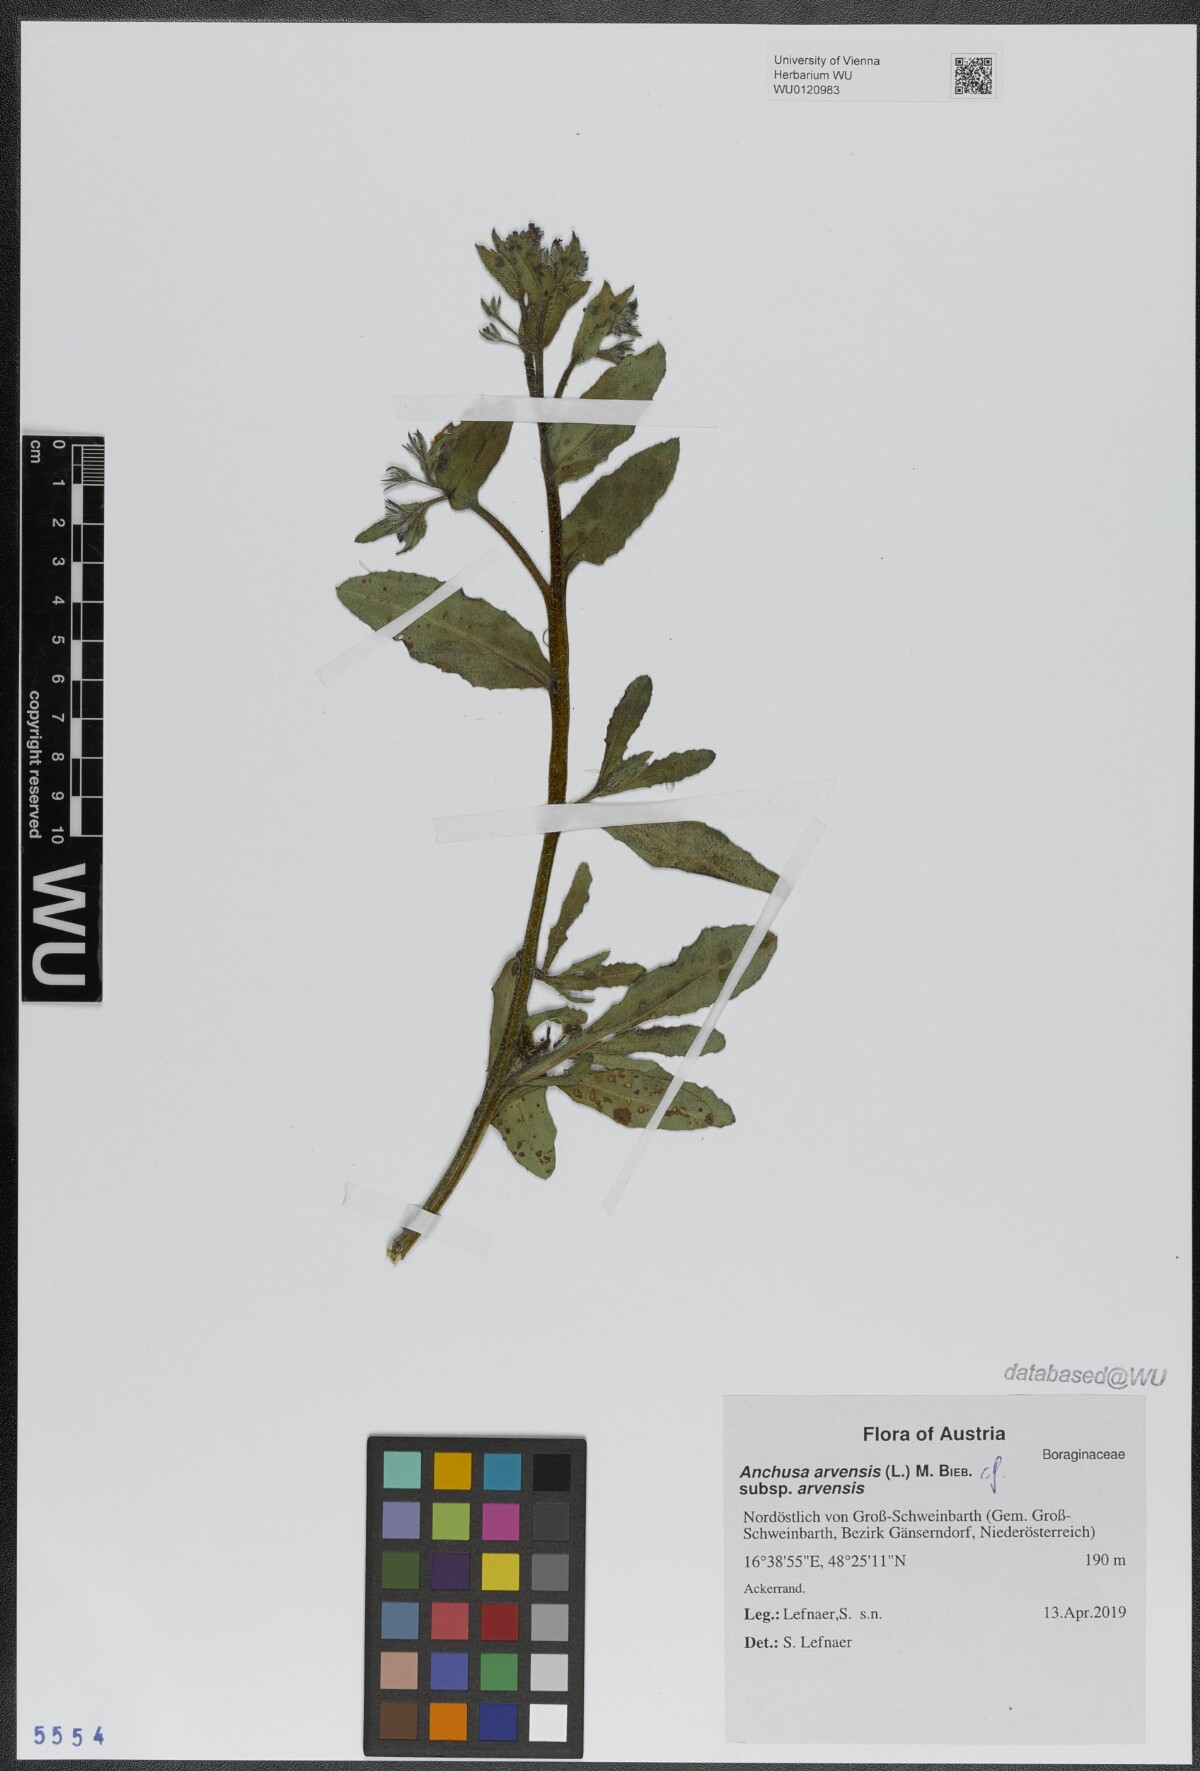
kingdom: Plantae
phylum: Tracheophyta
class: Magnoliopsida
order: Boraginales
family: Boraginaceae
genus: Lycopsis
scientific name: Lycopsis arvensis
